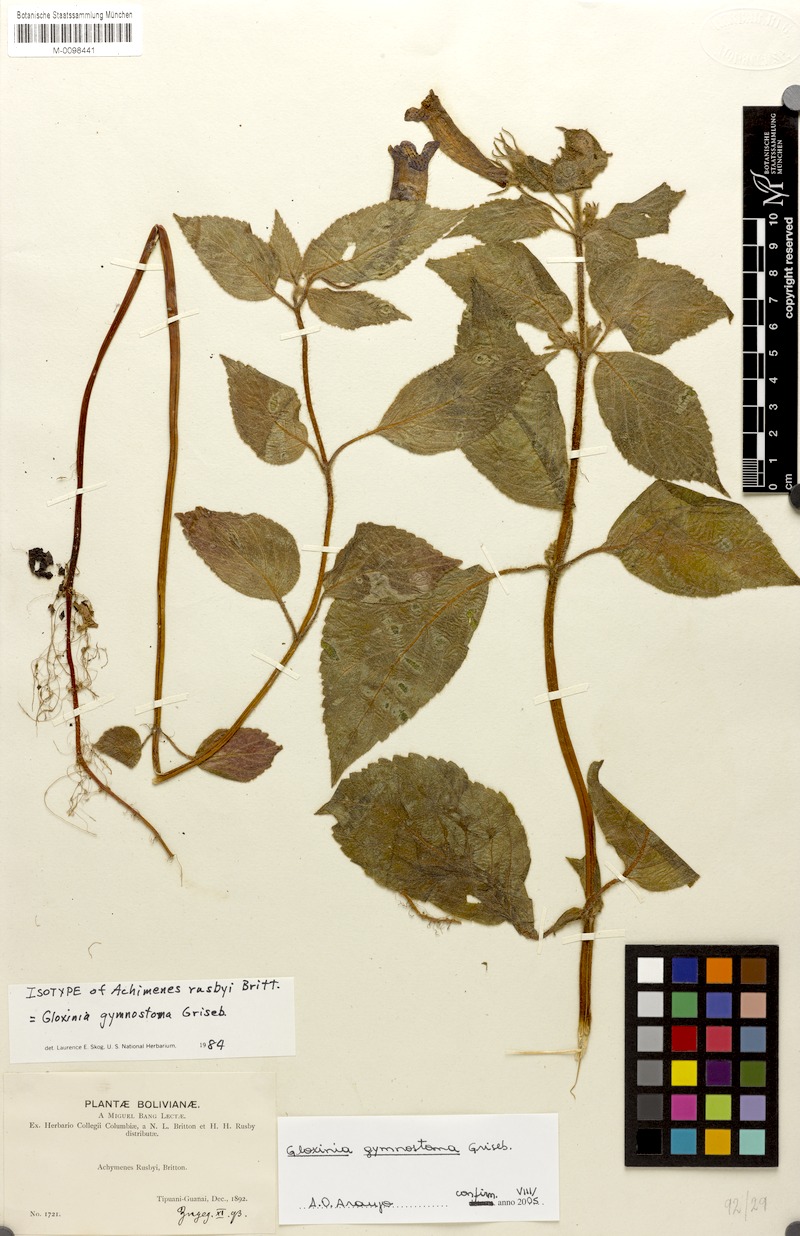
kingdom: Plantae
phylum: Tracheophyta
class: Magnoliopsida
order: Lamiales
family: Gesneriaceae
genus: Seemannia
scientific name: Seemannia gymnostoma
